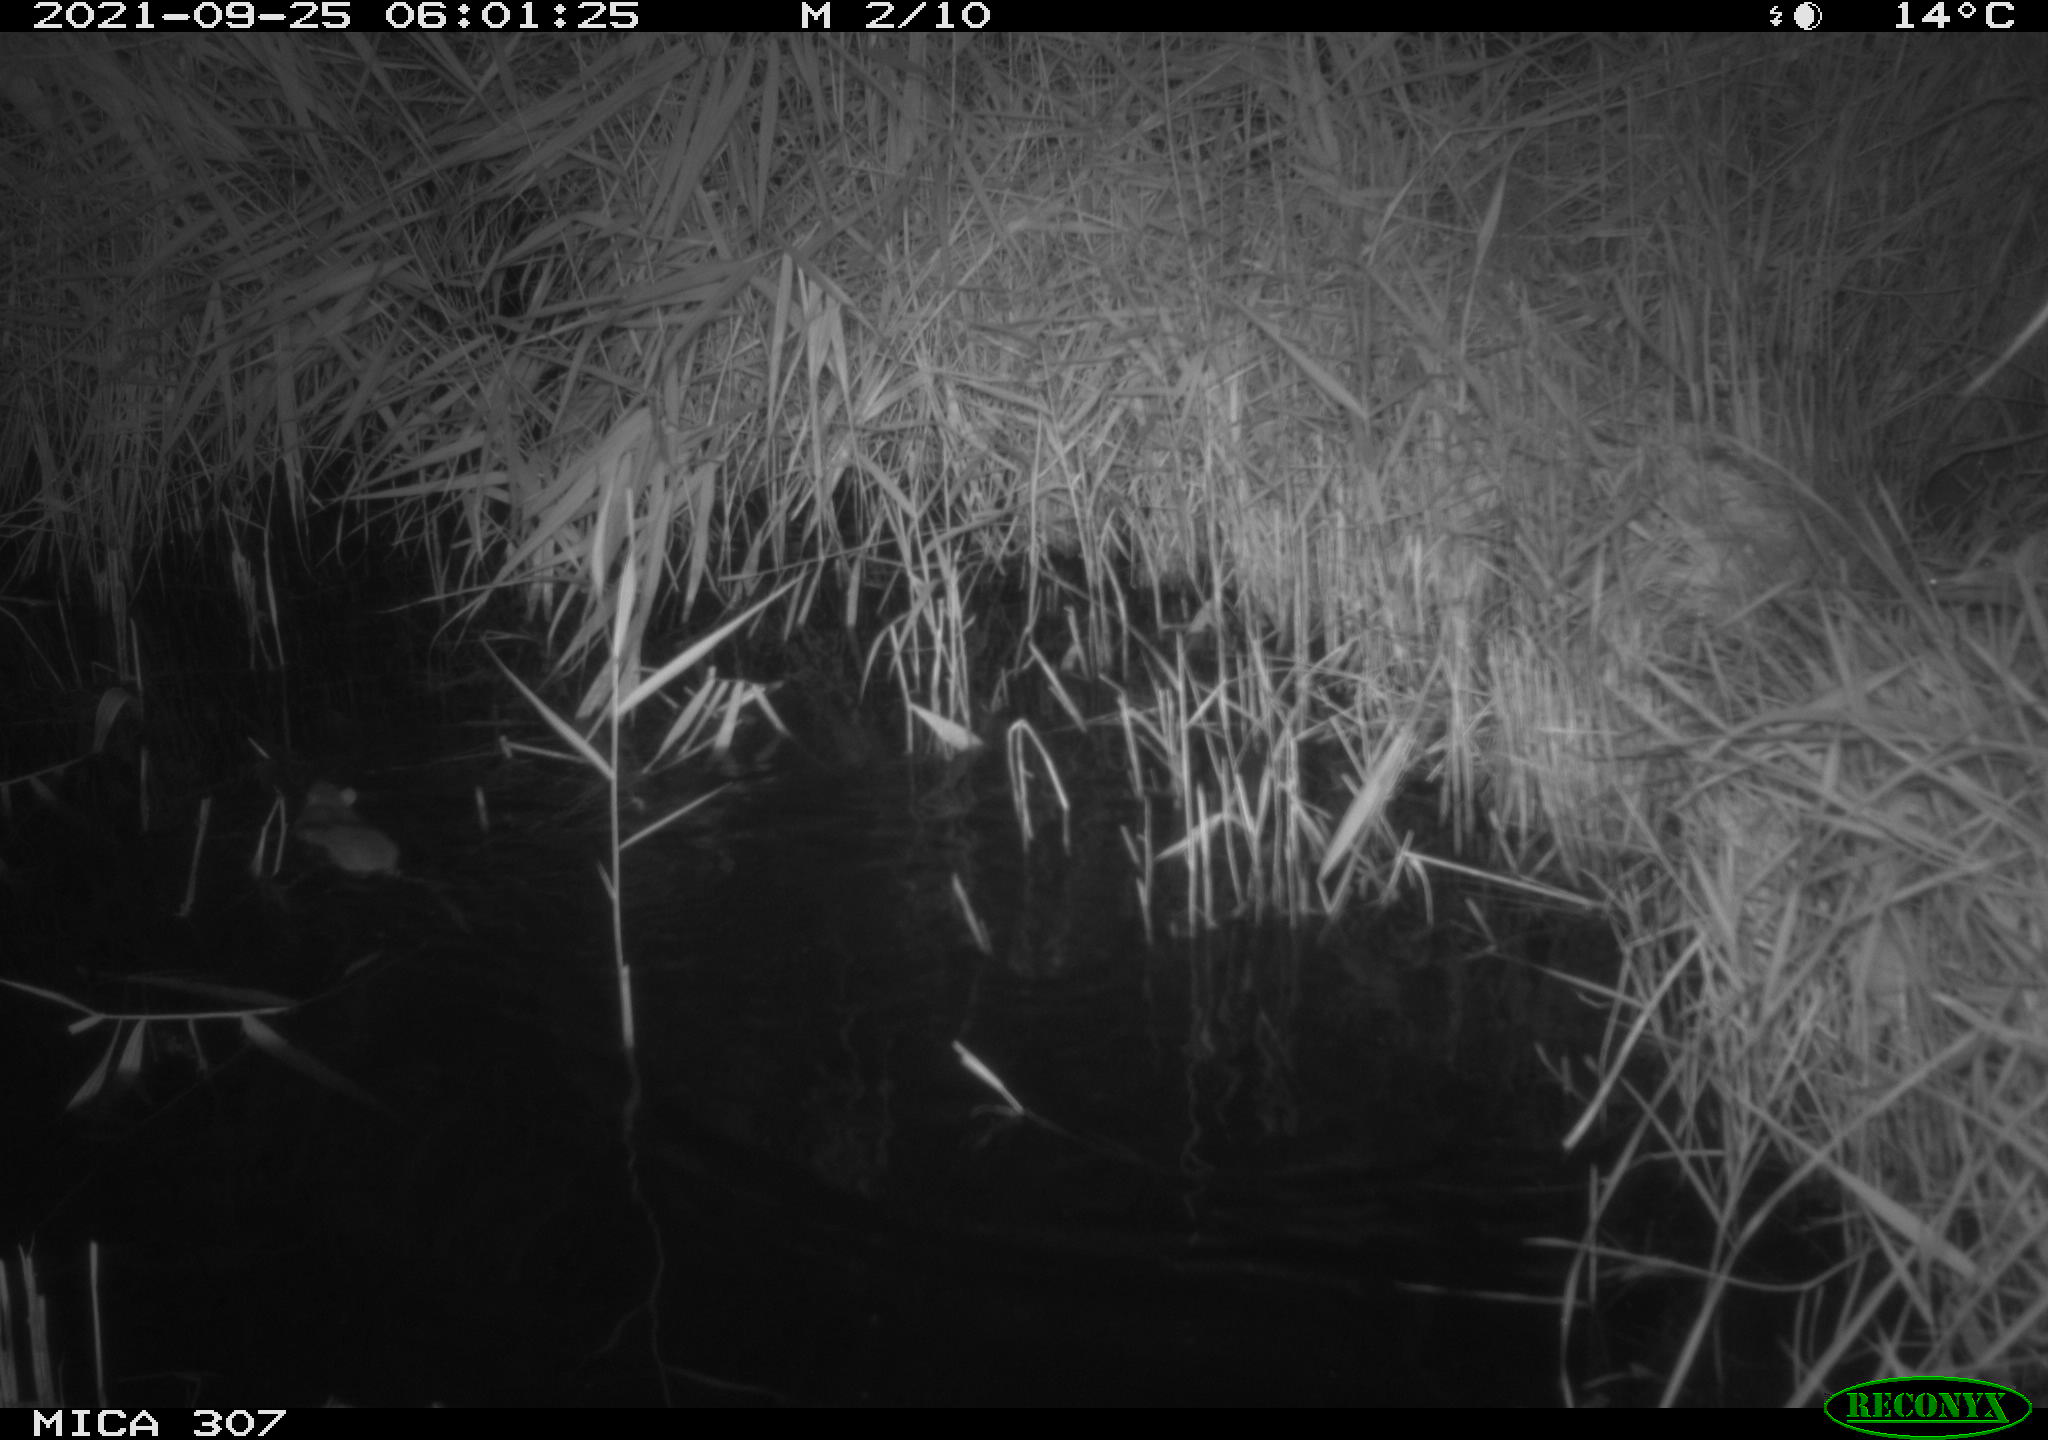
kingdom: Animalia
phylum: Chordata
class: Mammalia
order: Rodentia
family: Muridae
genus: Rattus
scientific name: Rattus norvegicus
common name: Brown rat
